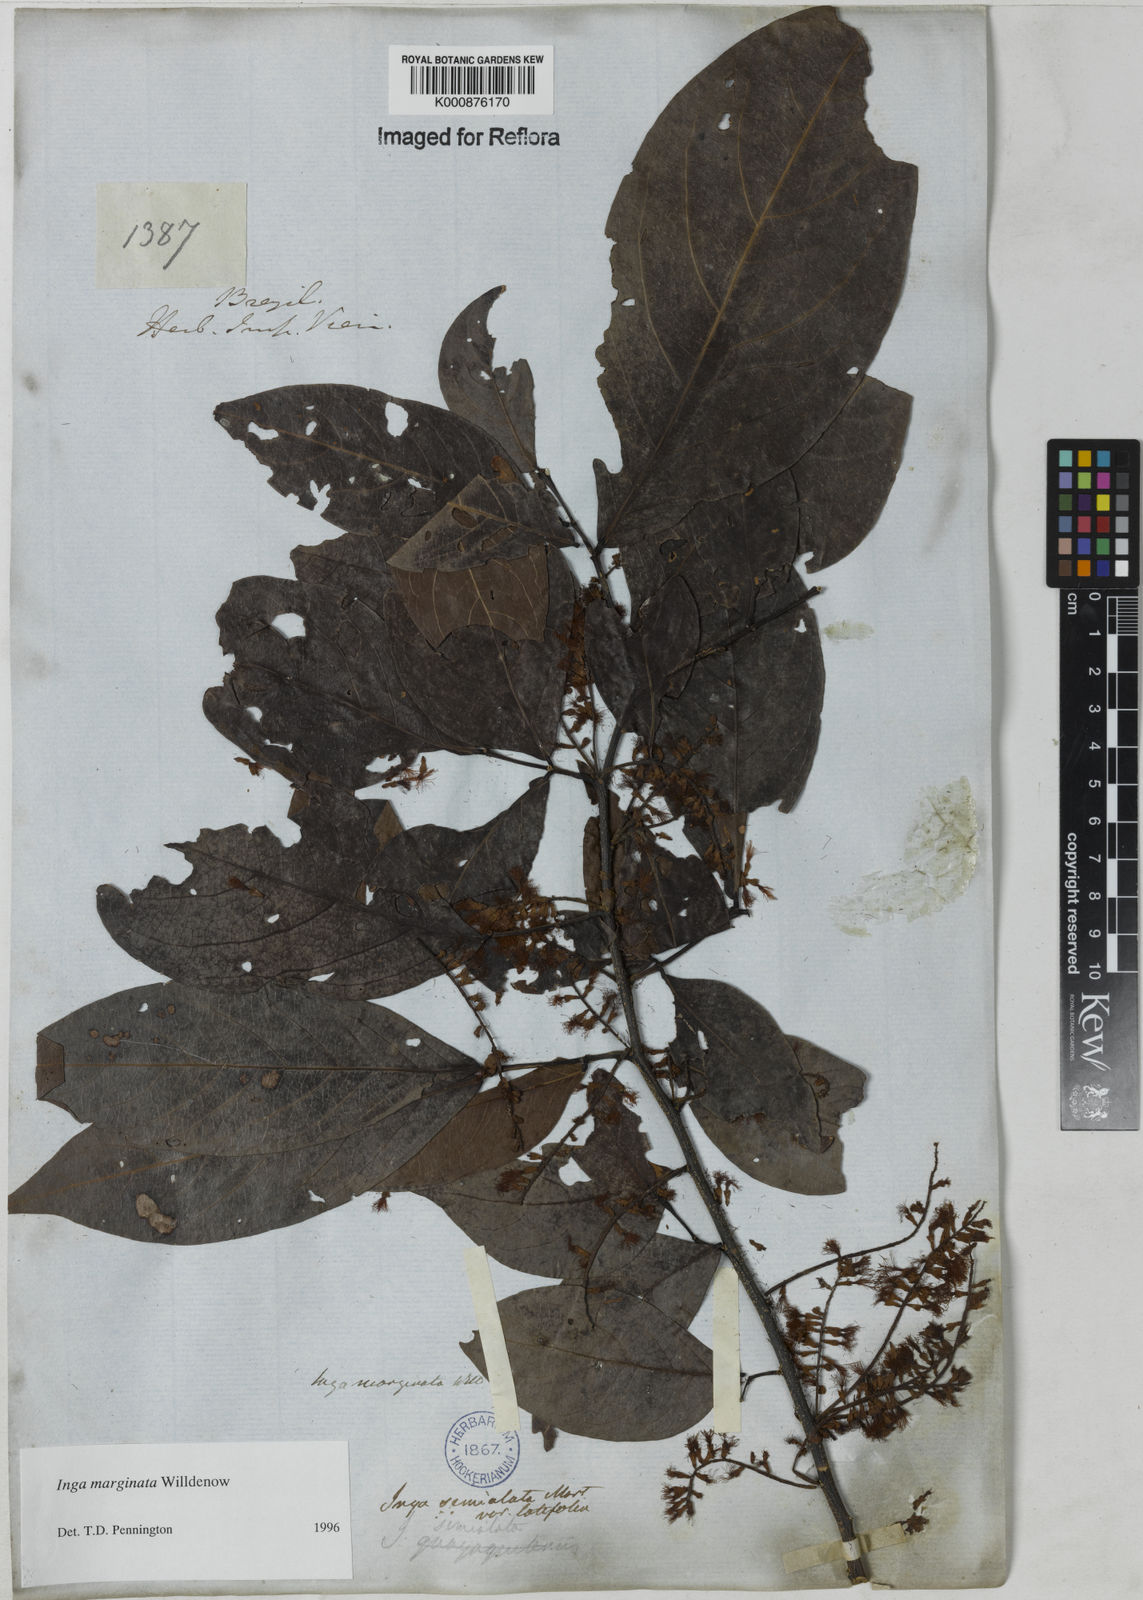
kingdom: Plantae
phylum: Tracheophyta
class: Magnoliopsida
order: Fabales
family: Fabaceae
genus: Inga
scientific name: Inga marginata
